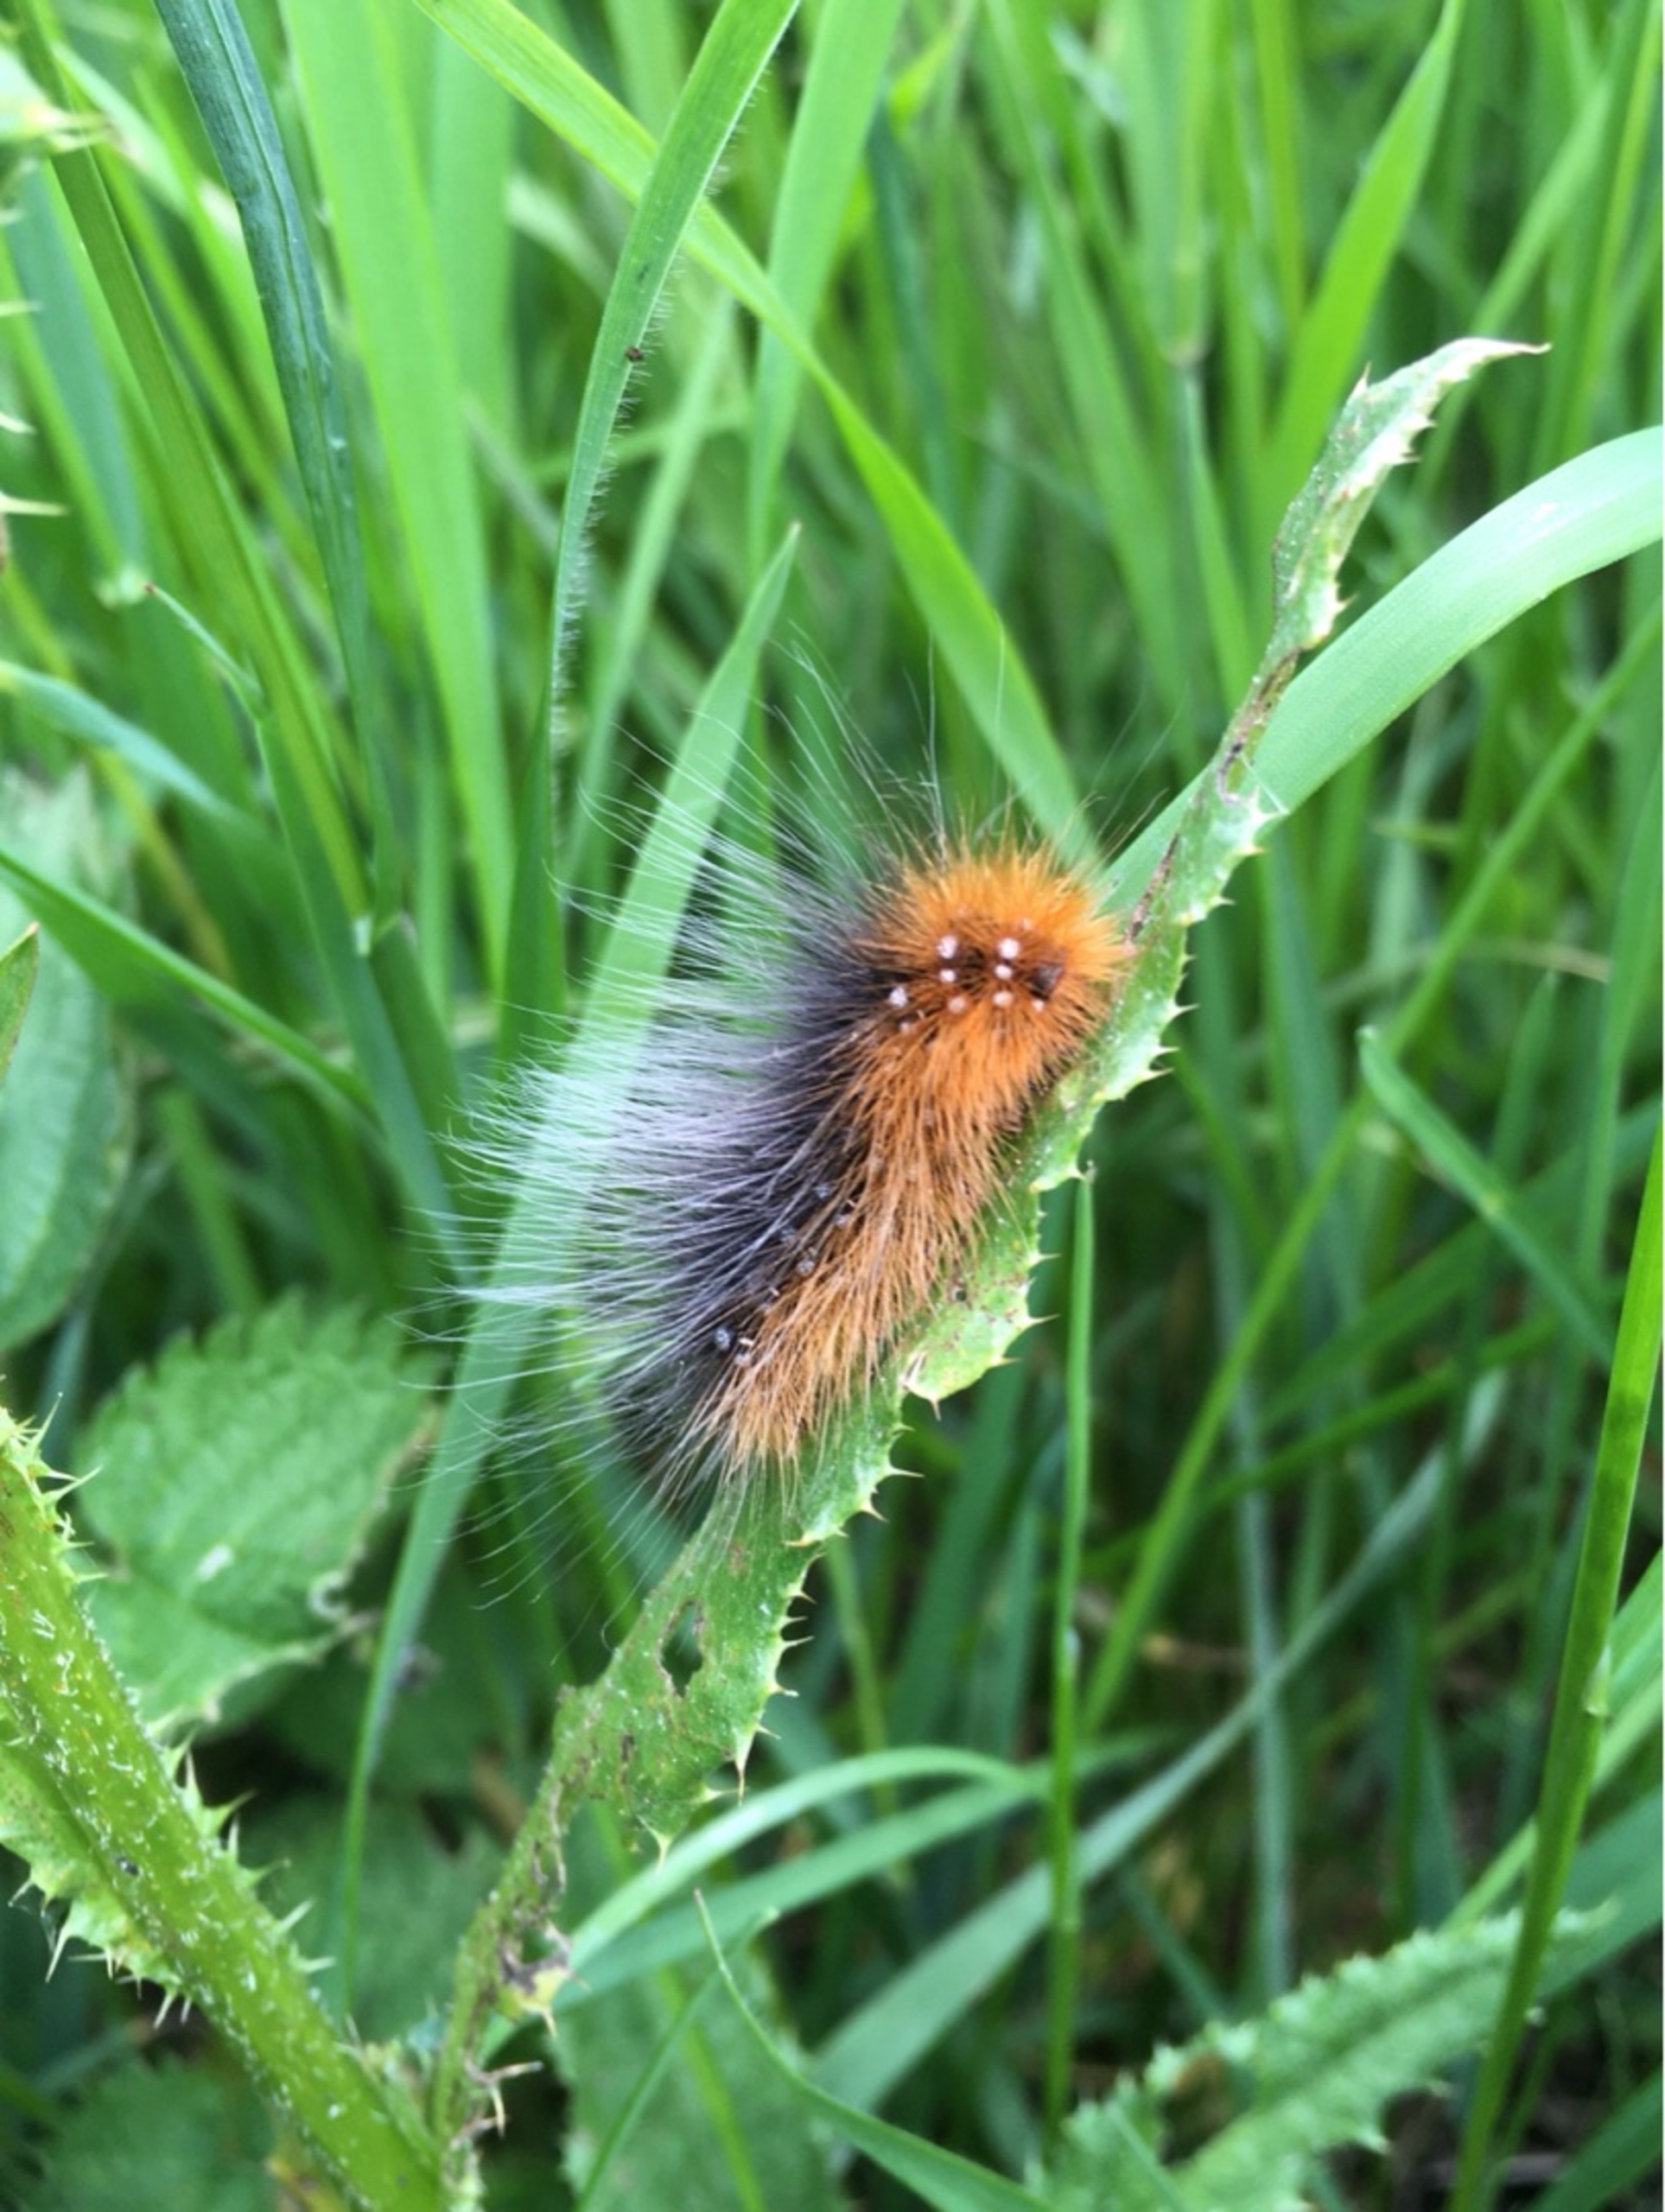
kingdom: Animalia
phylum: Arthropoda
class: Insecta
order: Lepidoptera
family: Erebidae
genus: Arctia
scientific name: Arctia caja
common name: Brun bjørn
